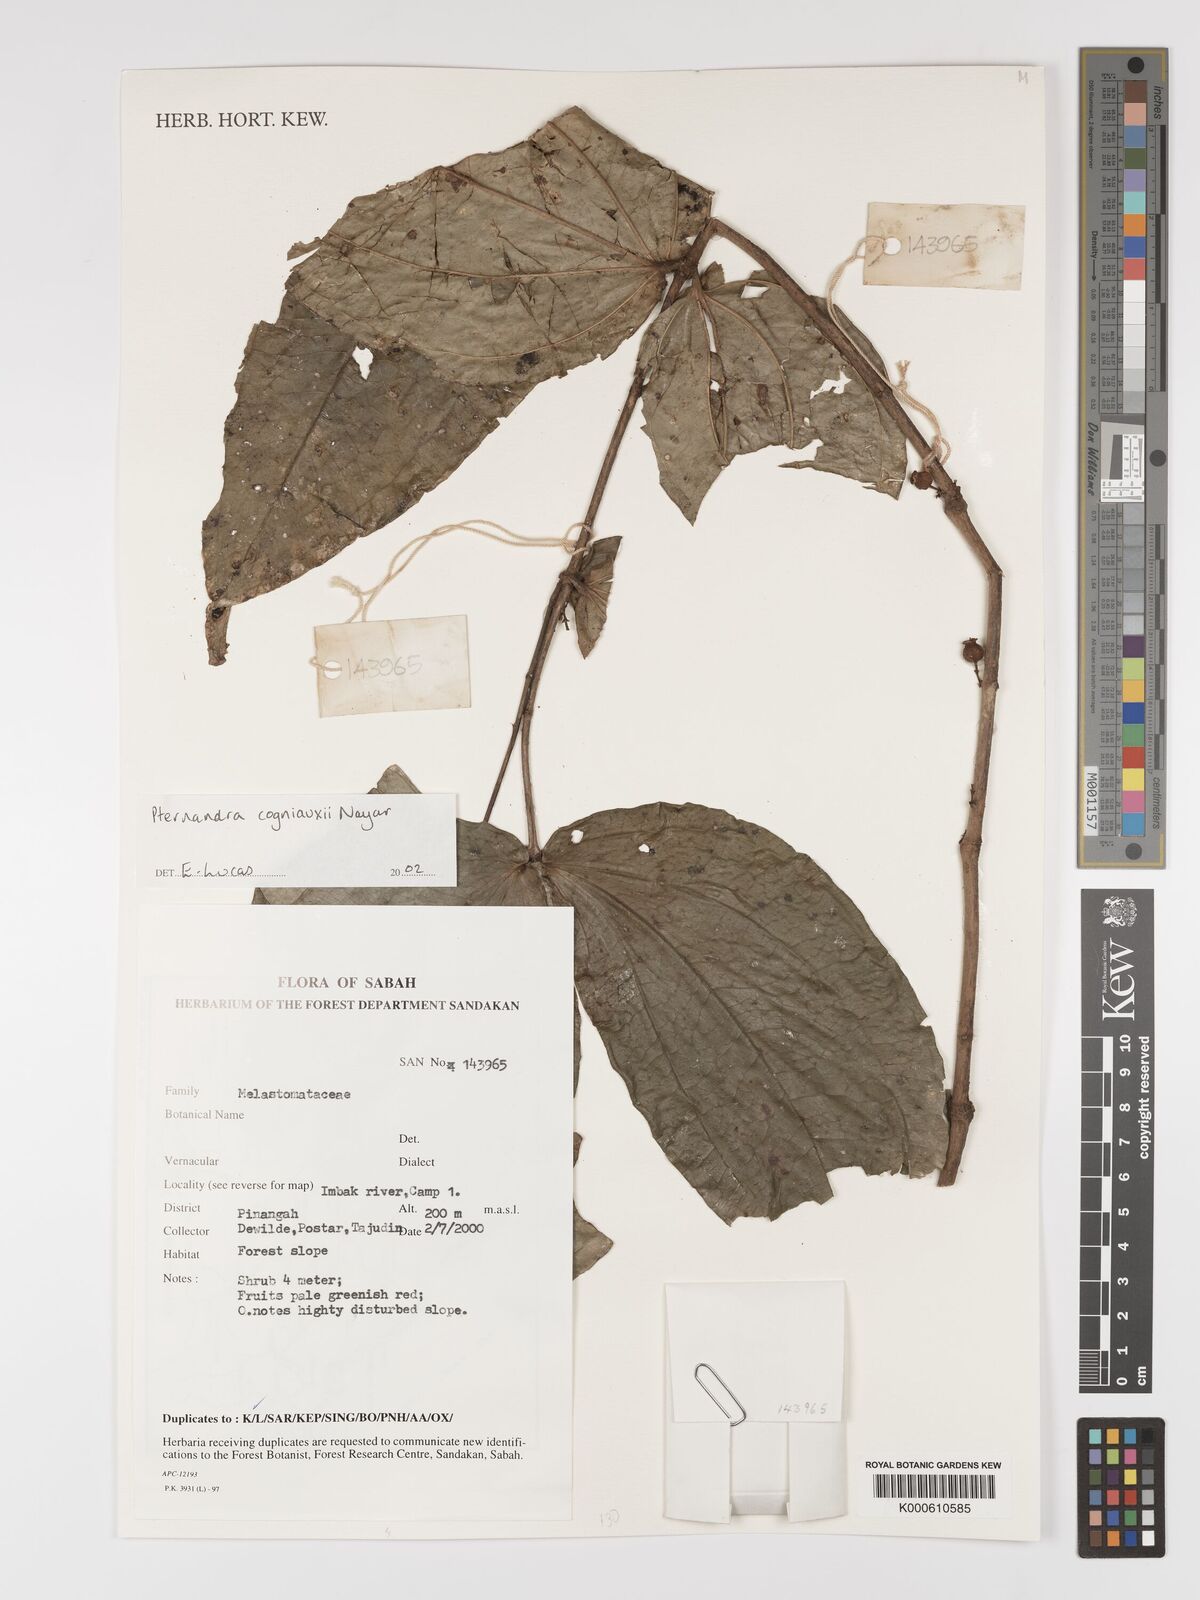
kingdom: Plantae
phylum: Tracheophyta
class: Magnoliopsida
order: Myrtales
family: Melastomataceae
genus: Pternandra
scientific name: Pternandra cogniauxii
